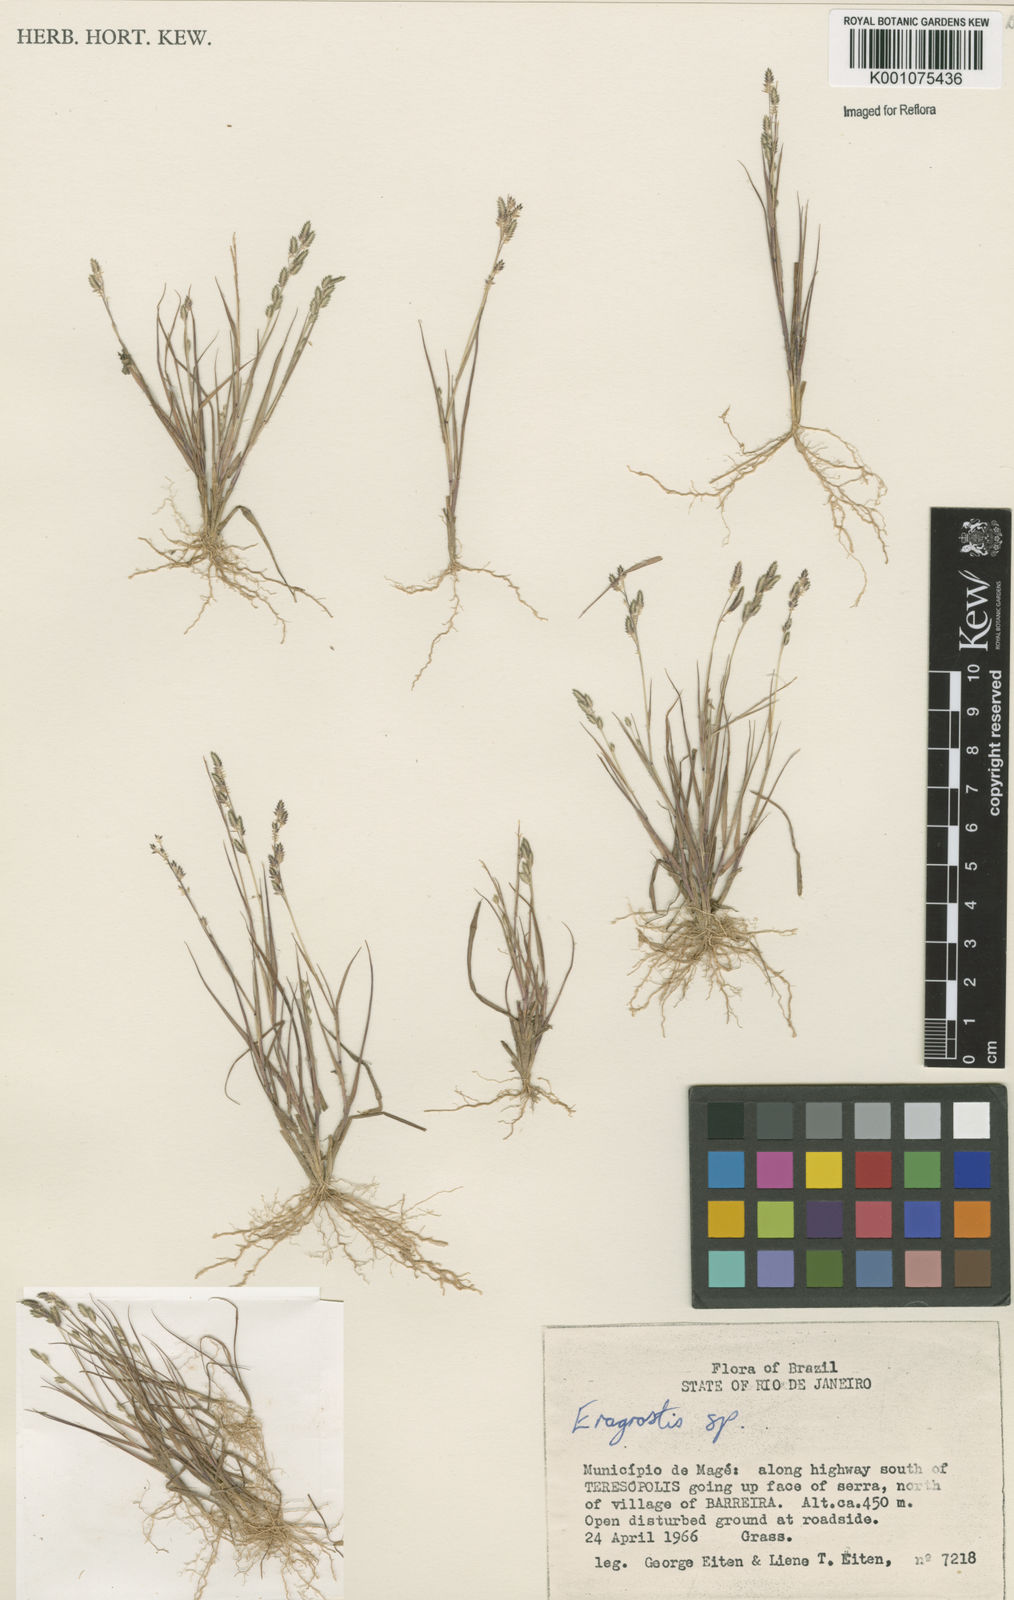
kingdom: Plantae
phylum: Tracheophyta
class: Liliopsida
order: Poales
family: Poaceae
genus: Eragrostis
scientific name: Eragrostis rufescens
